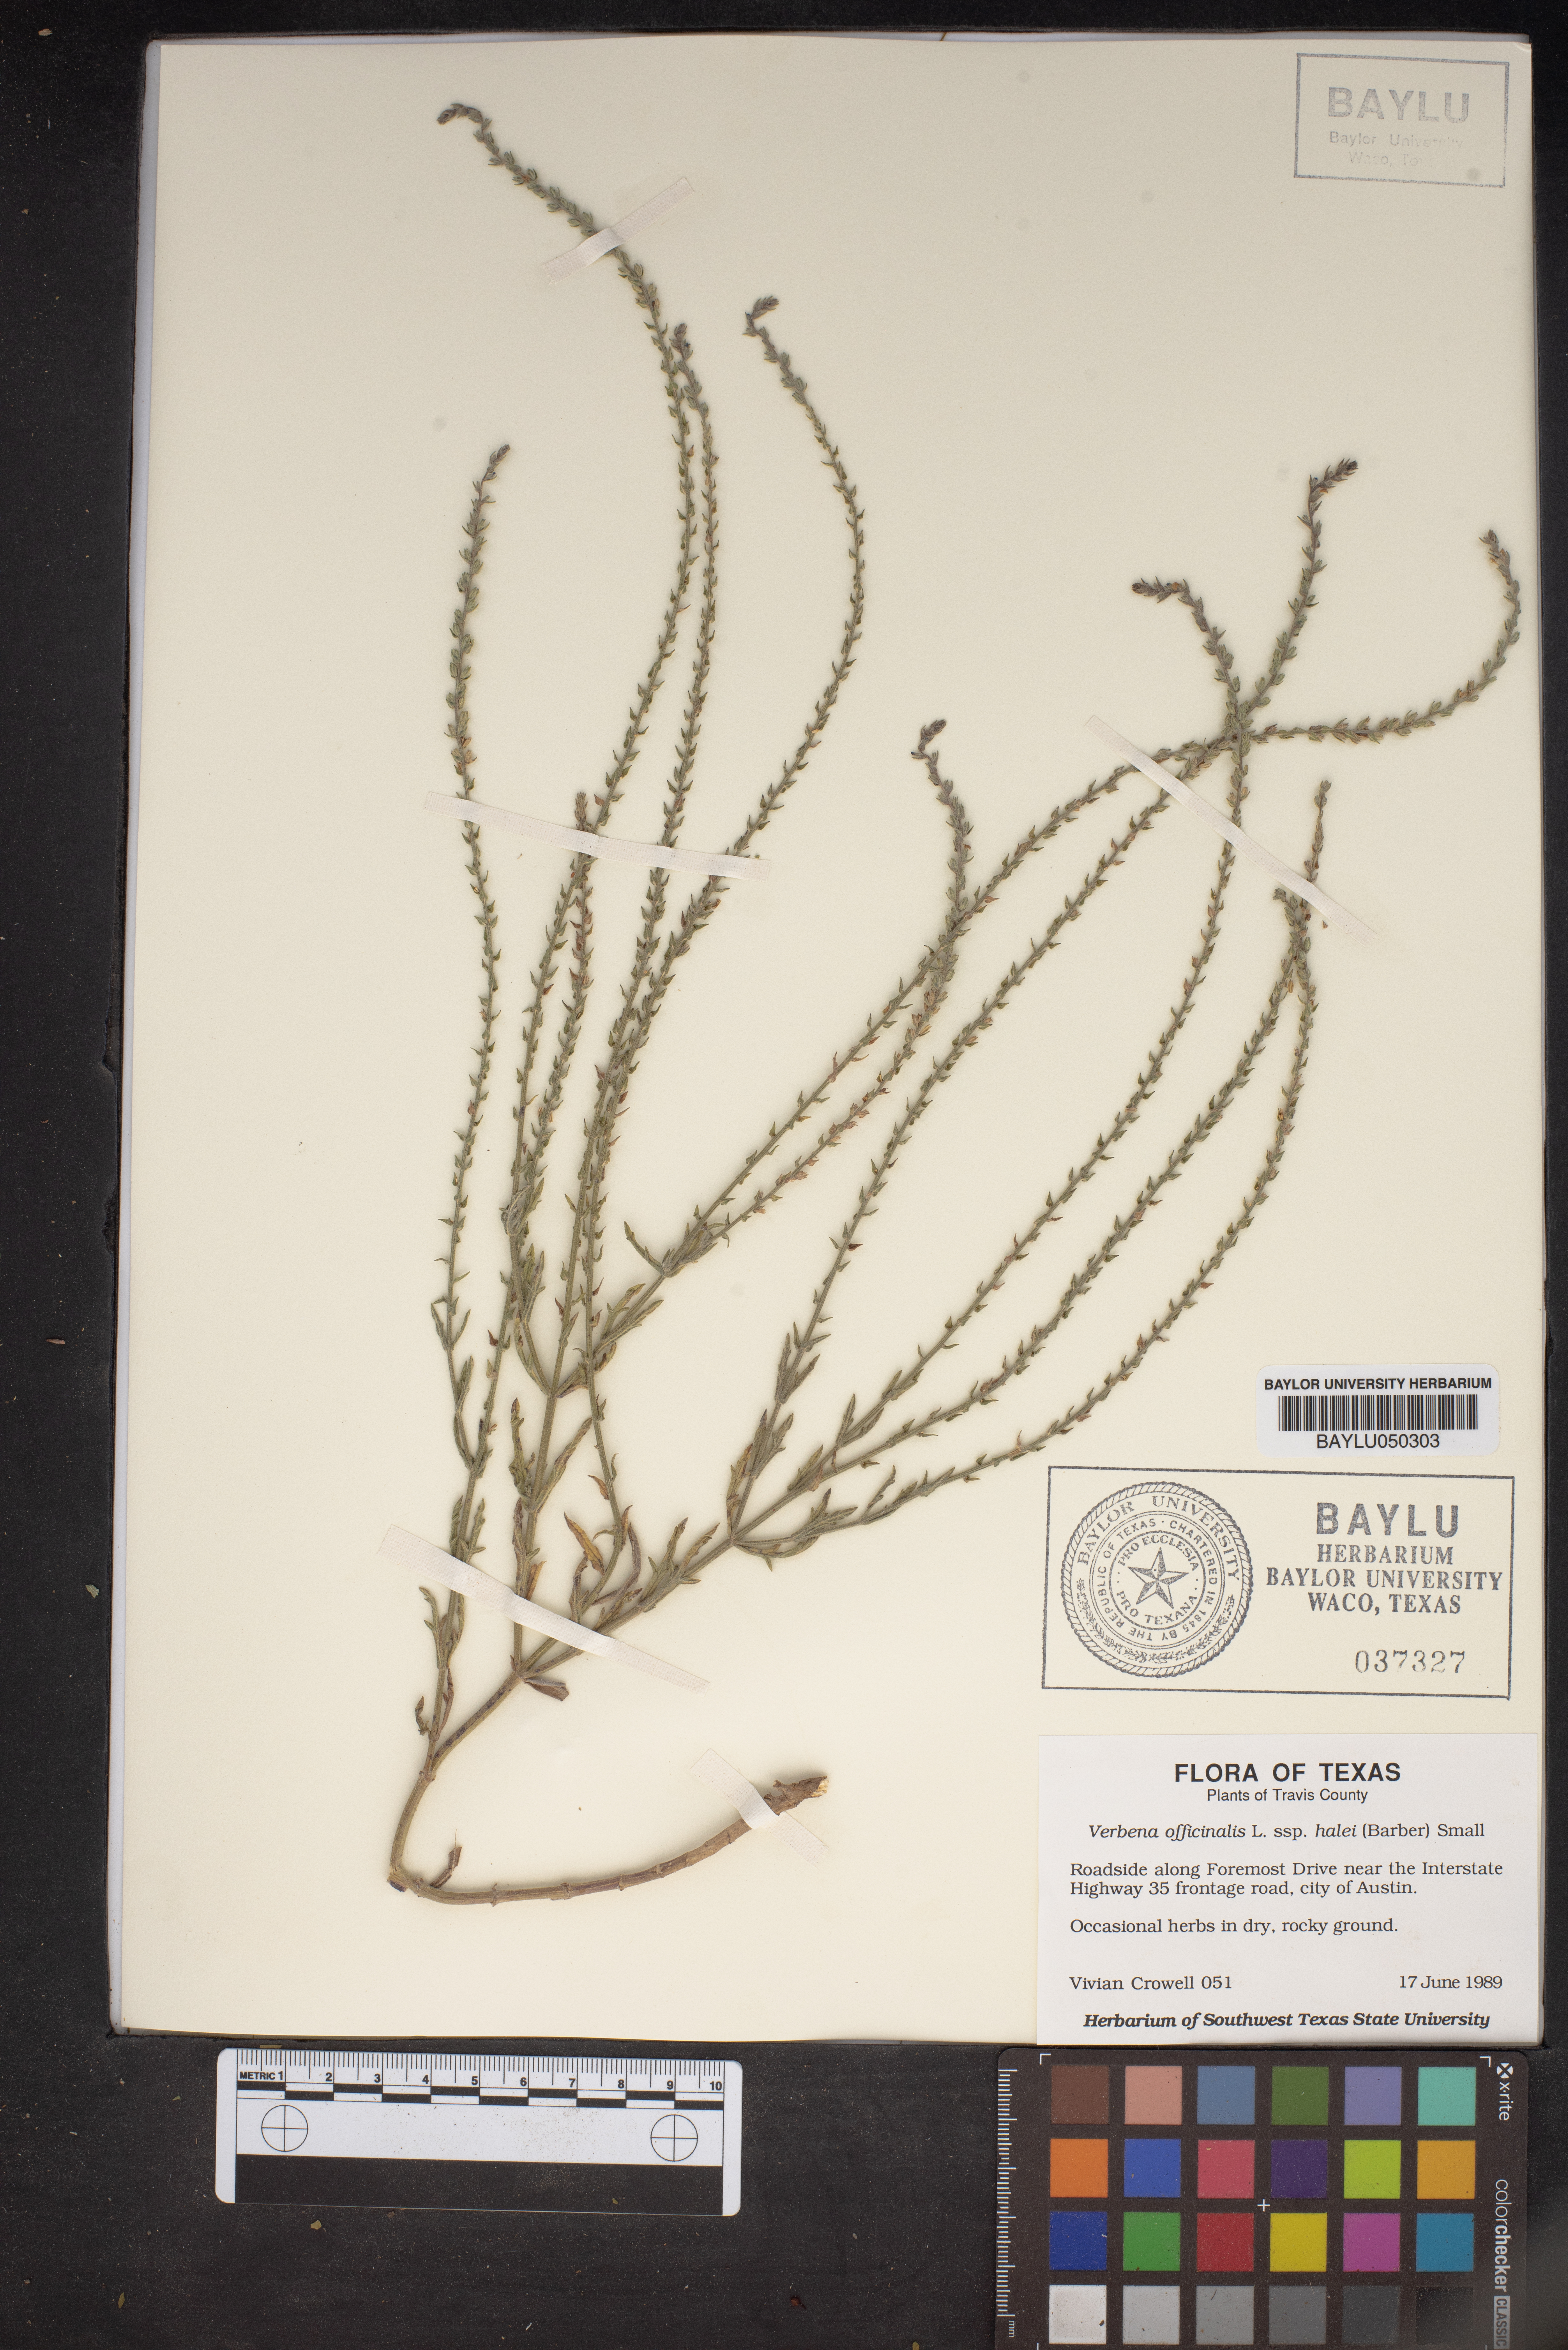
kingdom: Plantae
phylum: Tracheophyta
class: Magnoliopsida
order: Lamiales
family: Verbenaceae
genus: Verbena
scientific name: Verbena officinalis
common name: Vervain
